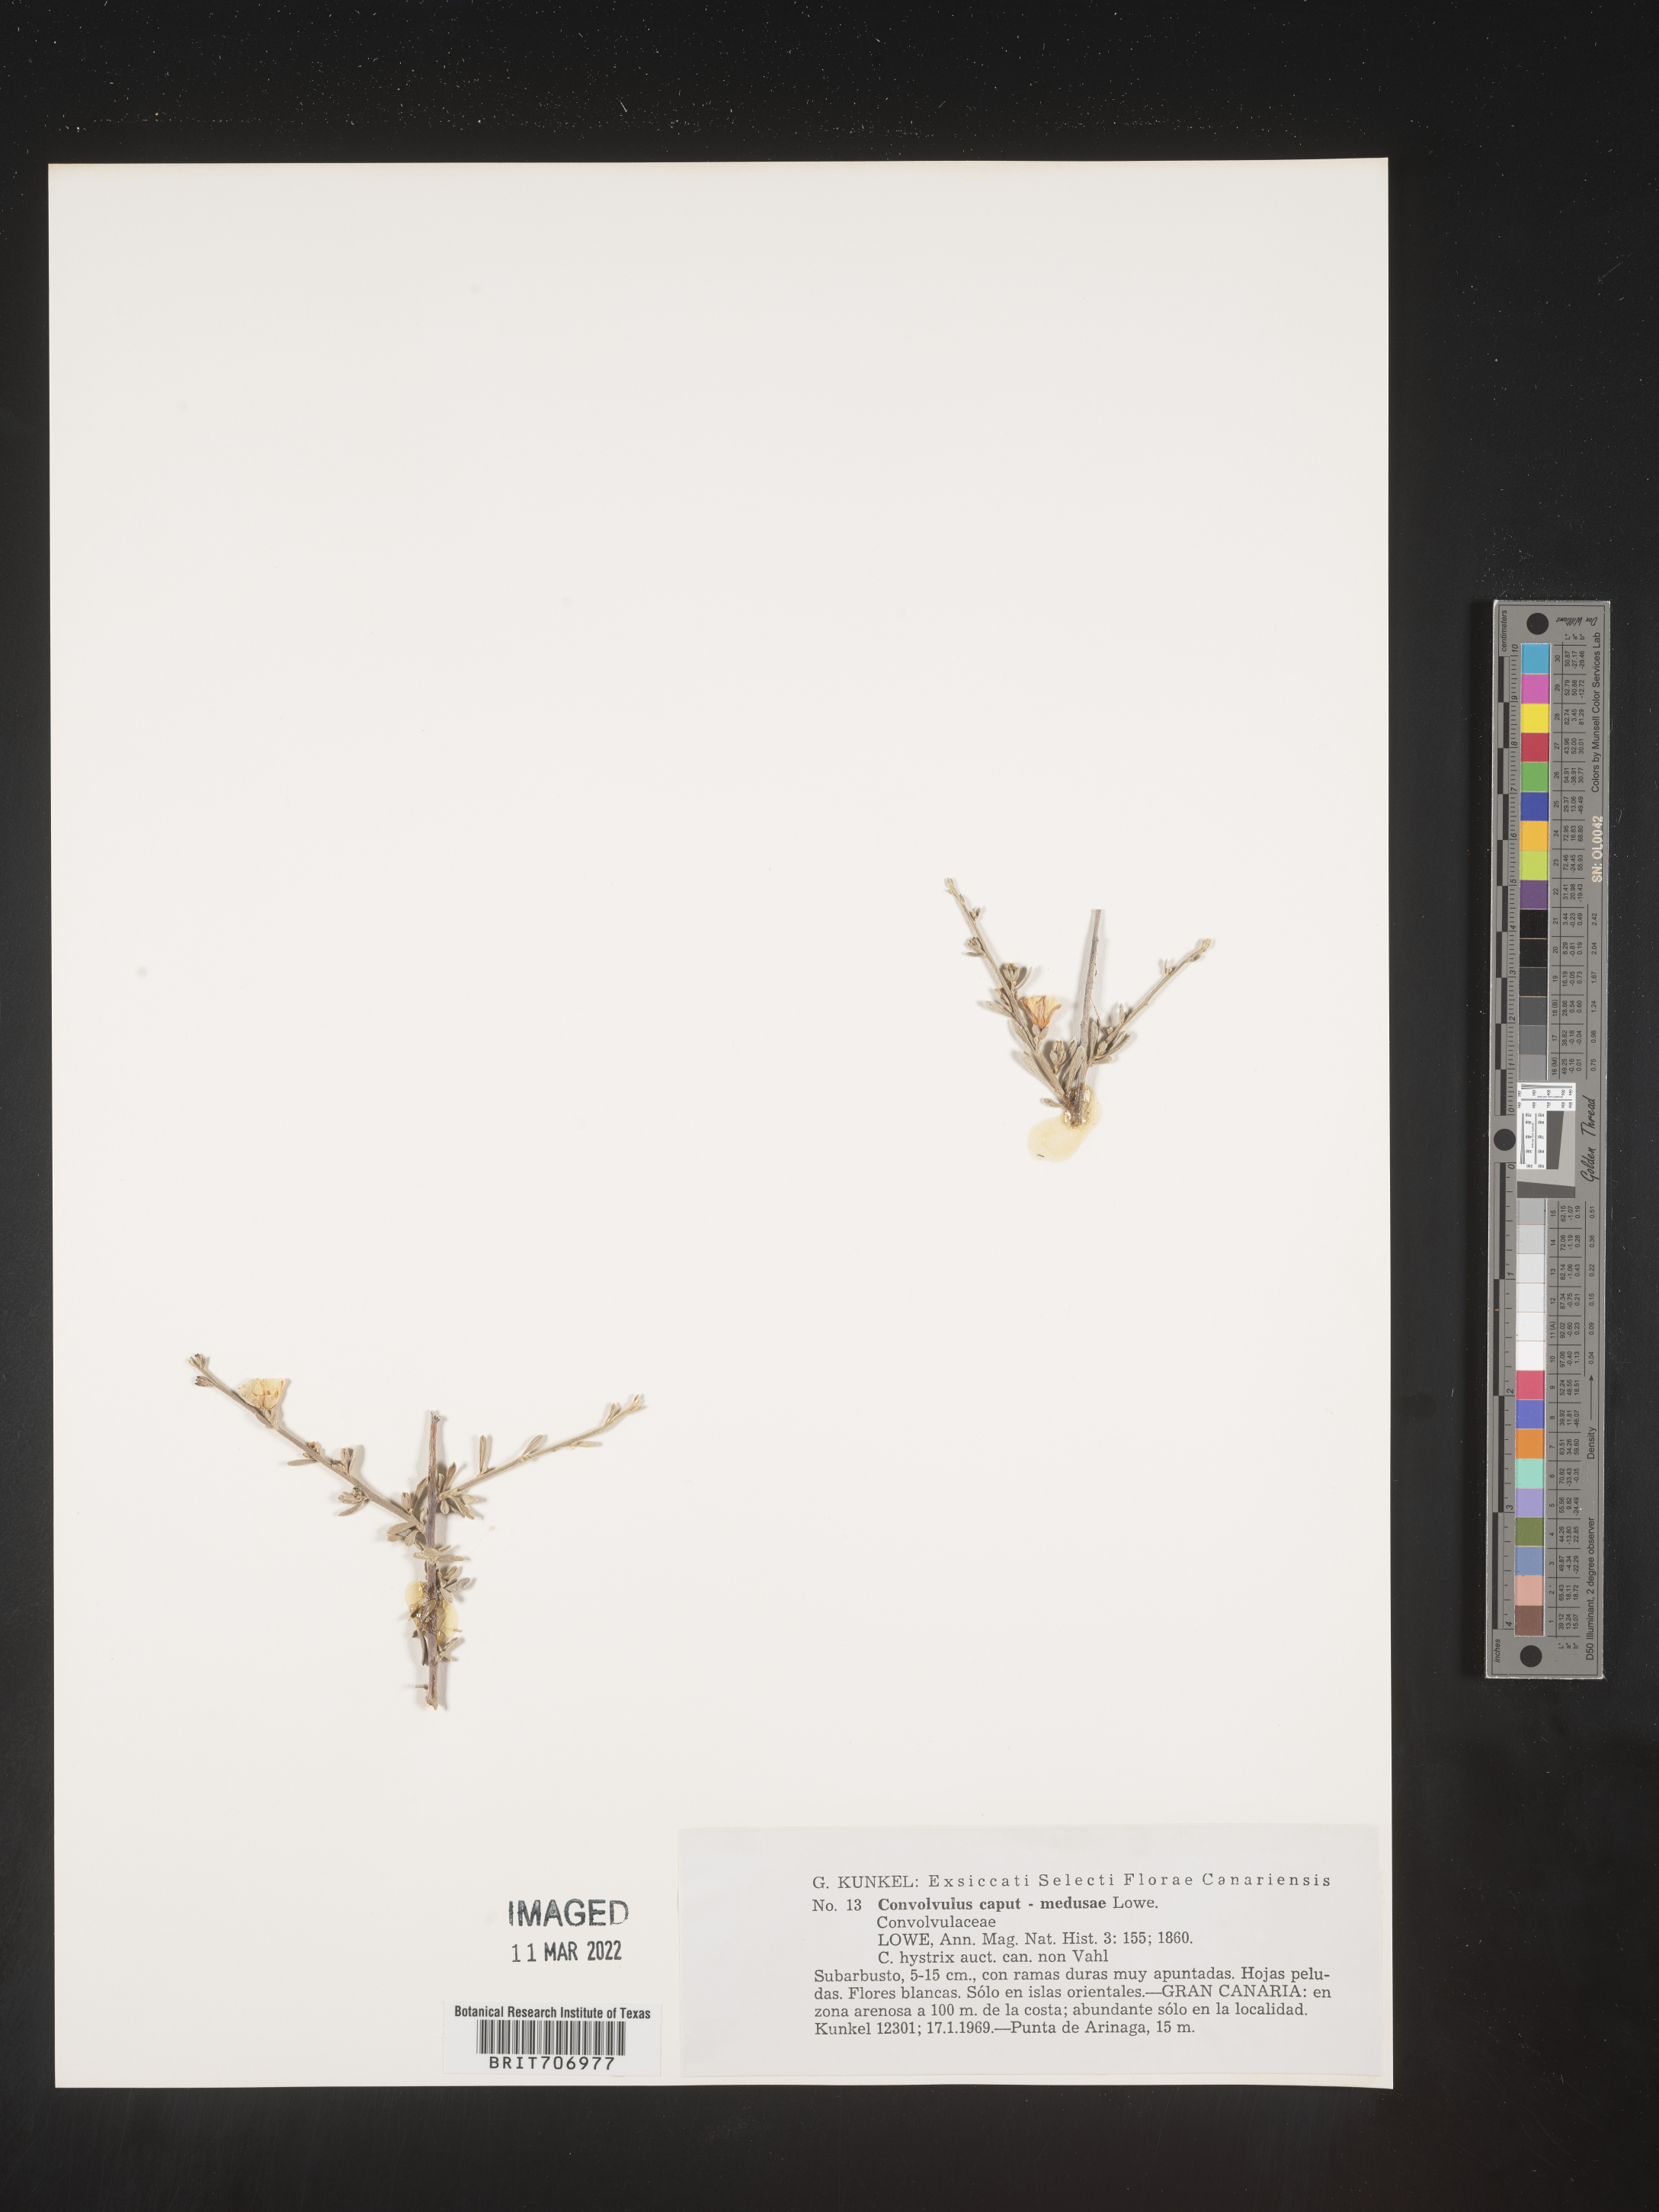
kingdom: Plantae
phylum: Tracheophyta
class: Magnoliopsida
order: Solanales
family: Convolvulaceae
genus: Convolvulus
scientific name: Convolvulus
